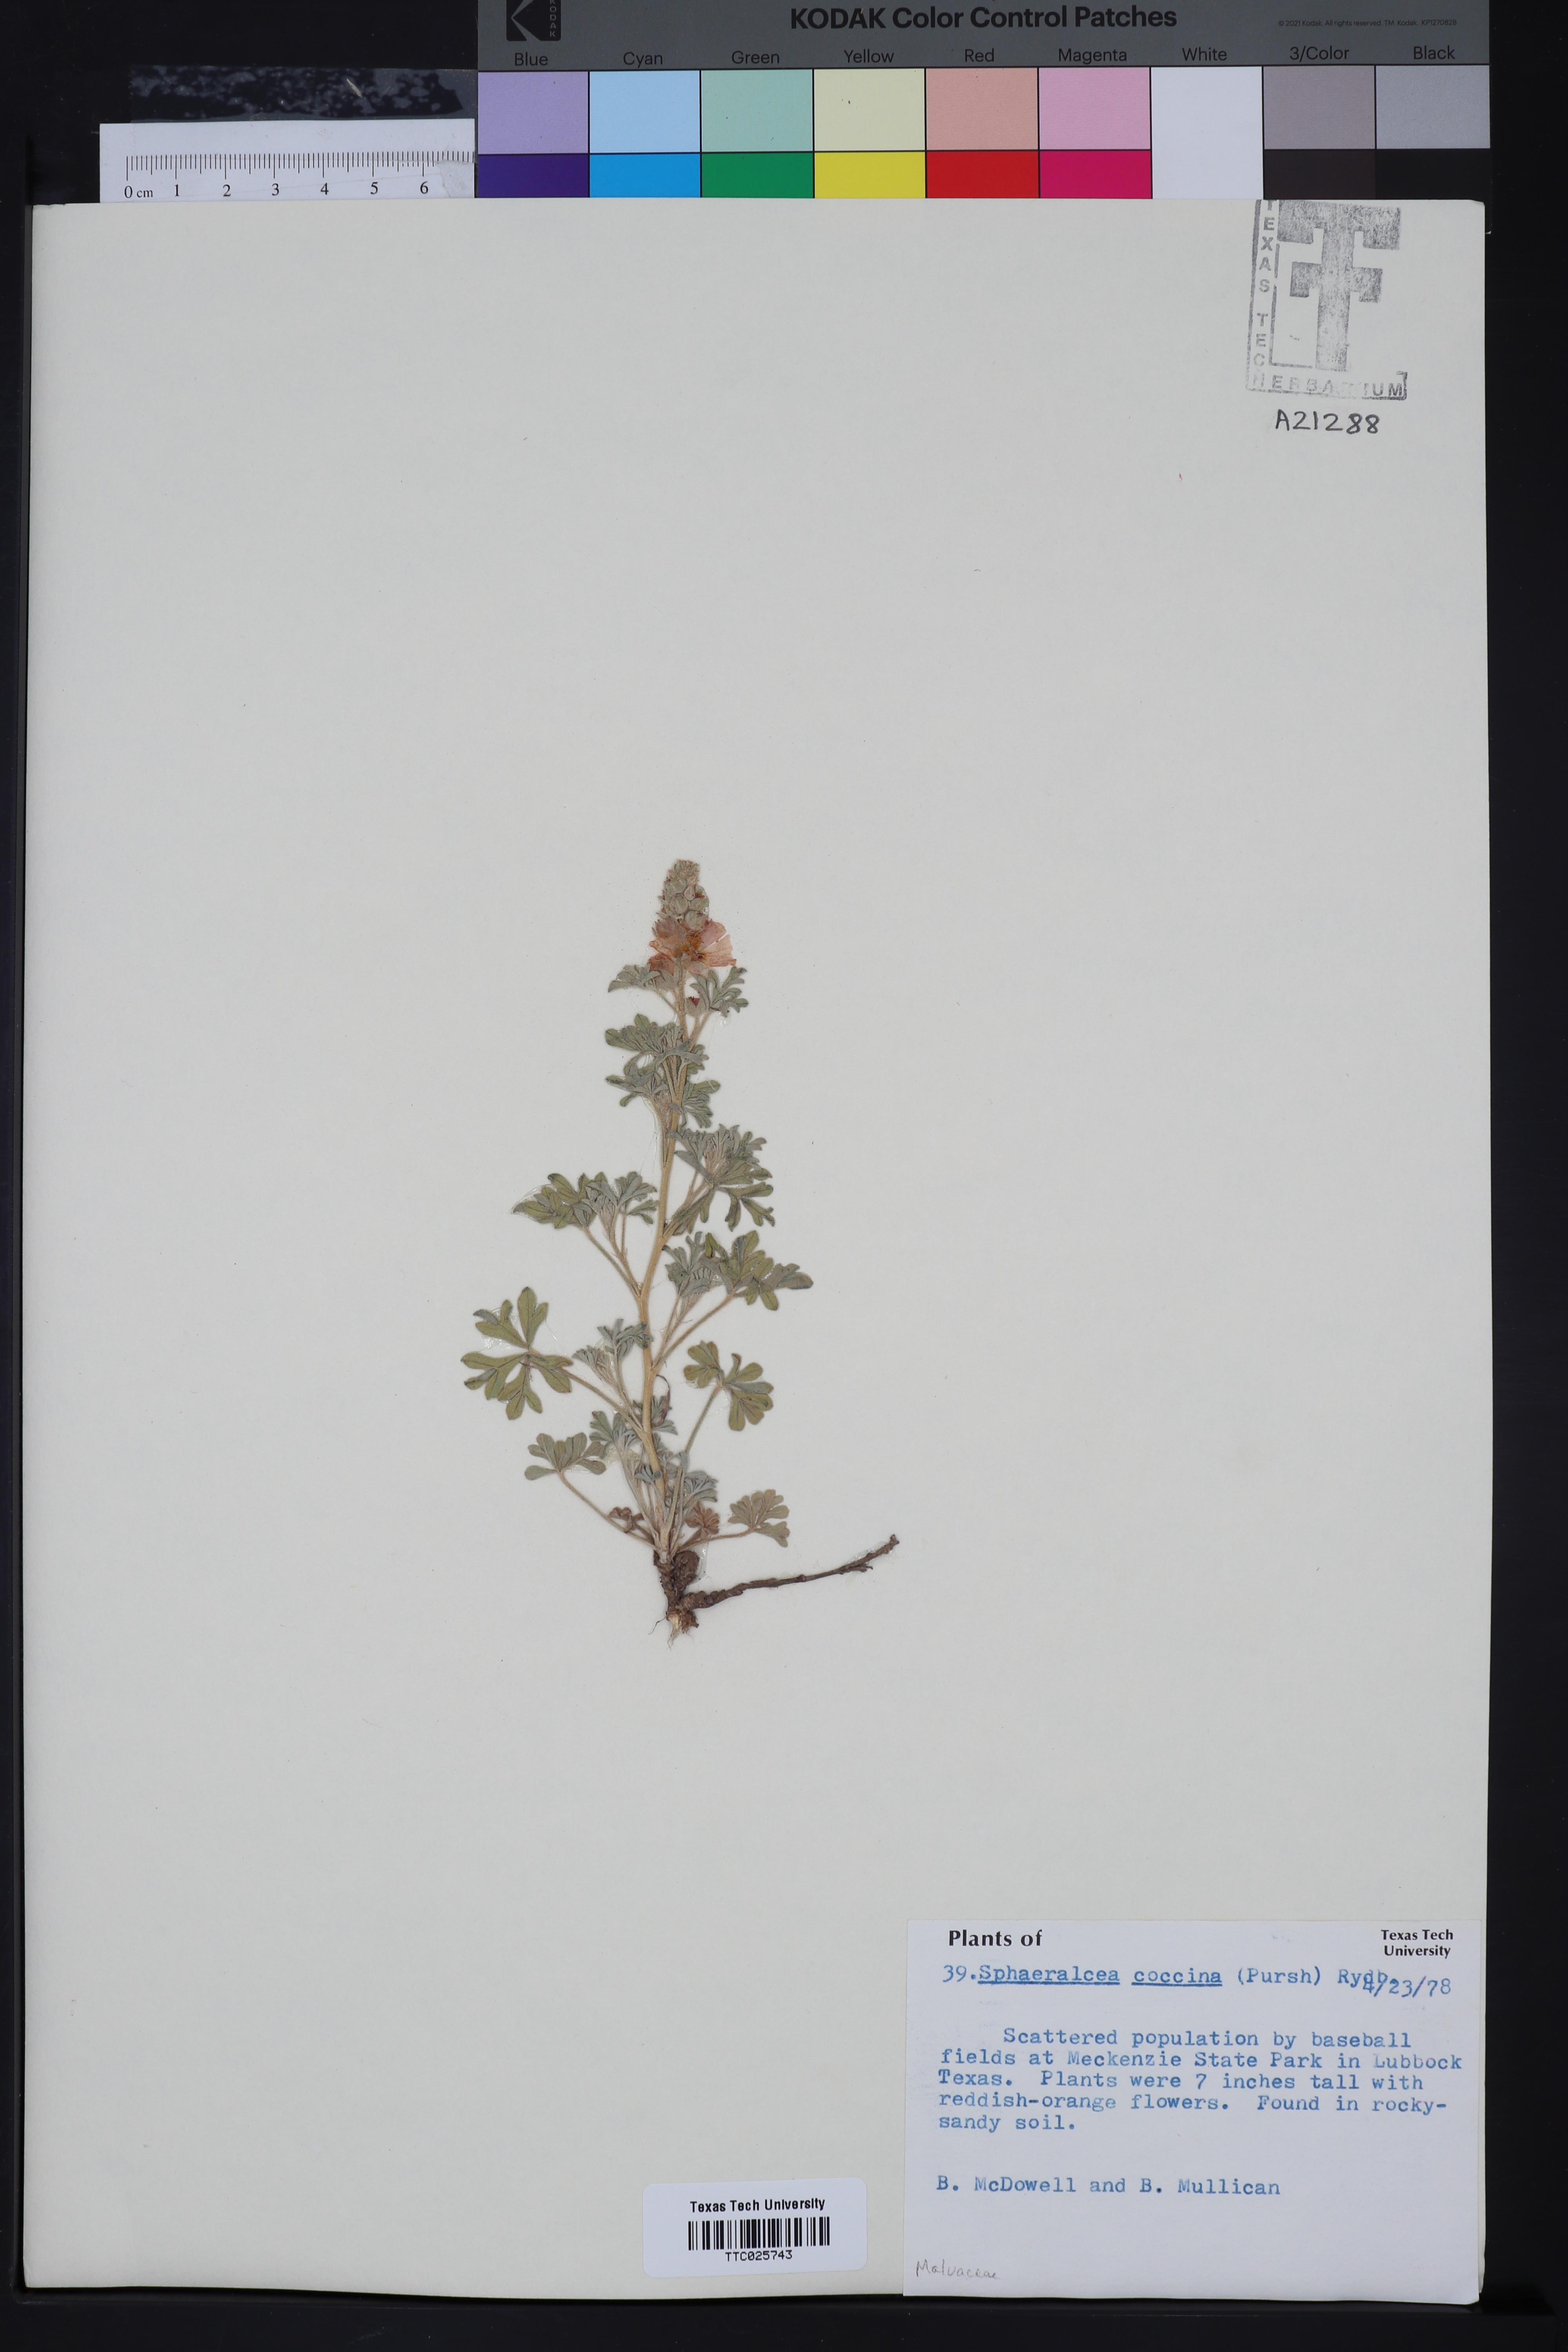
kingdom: Plantae
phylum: Tracheophyta
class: Magnoliopsida
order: Malvales
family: Malvaceae
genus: Sphaeralcea
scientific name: Sphaeralcea coccinea
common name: Moss-rose
